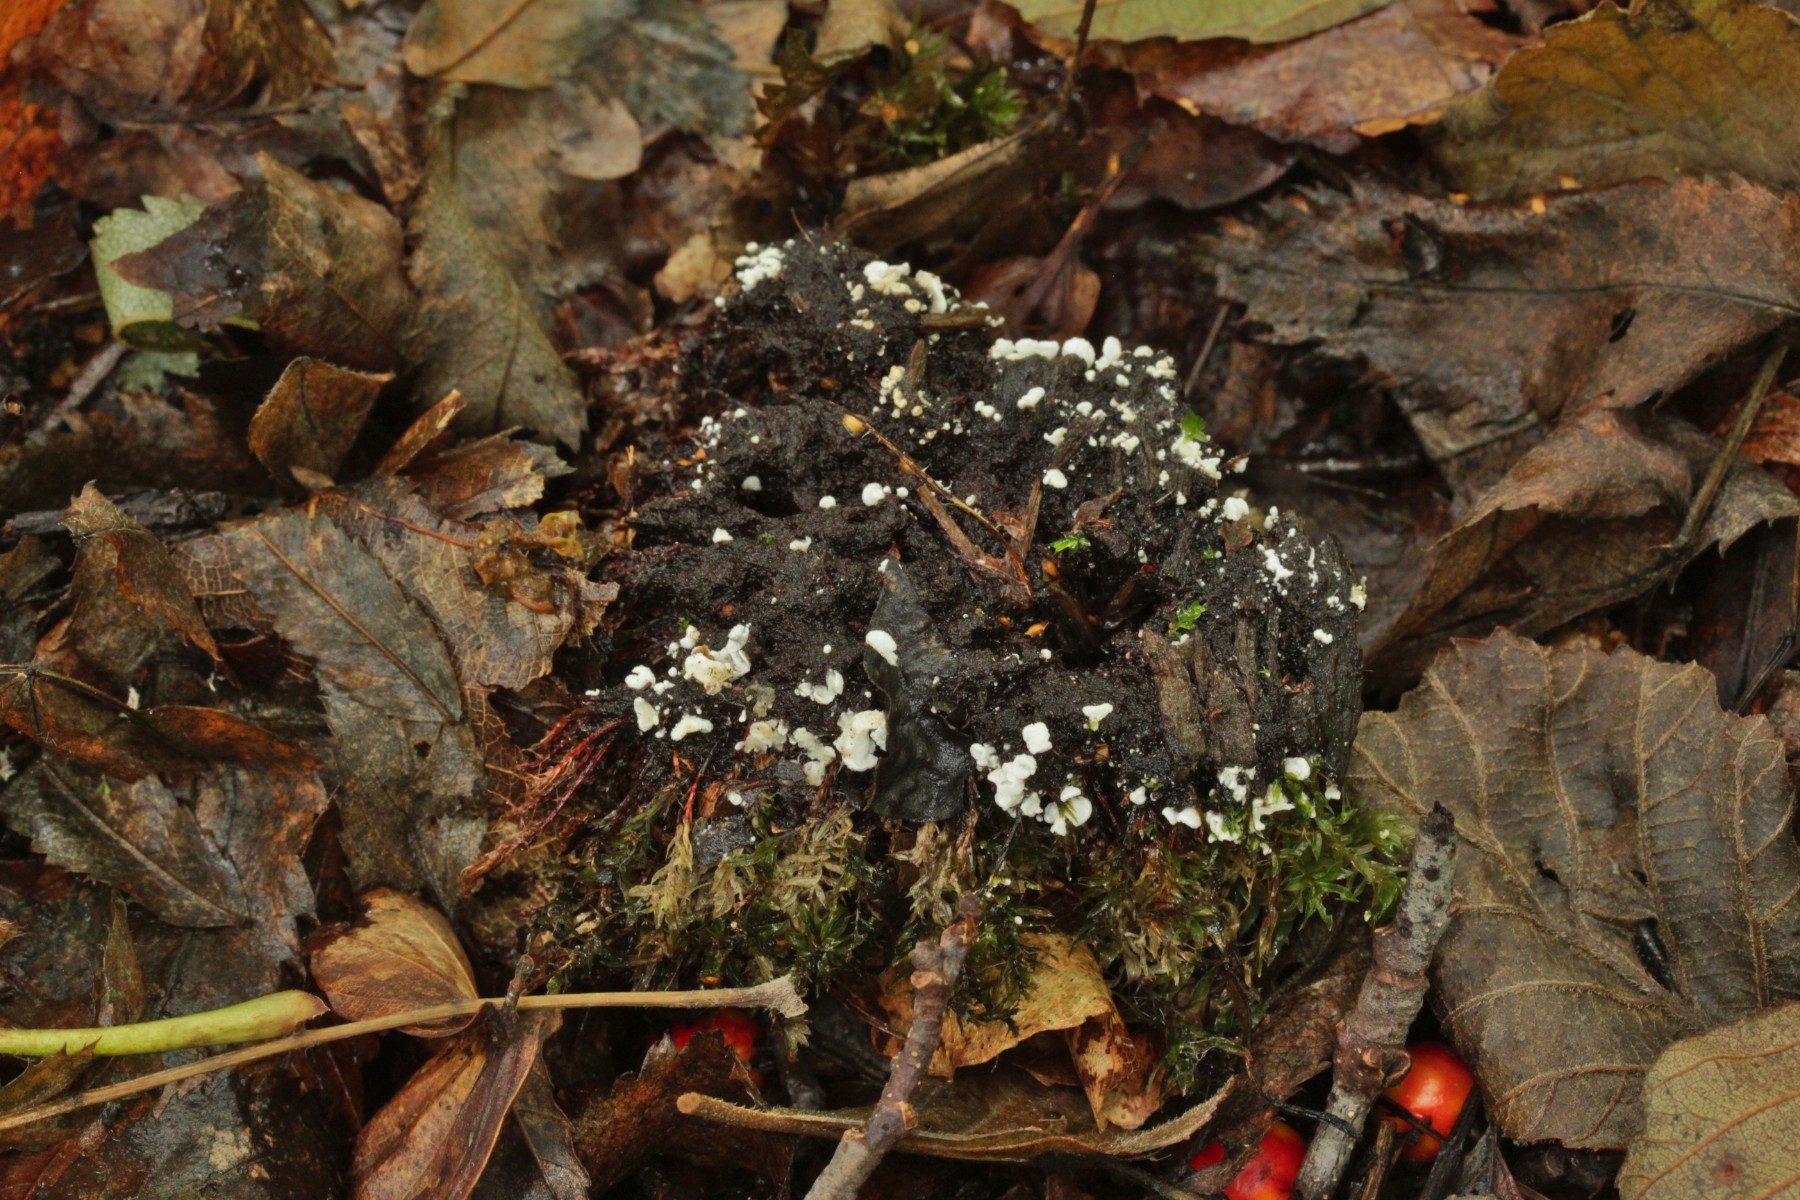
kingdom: Fungi
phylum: Basidiomycota
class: Agaricomycetes
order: Agaricales
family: Tricholomataceae
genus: Rimbachia
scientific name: Rimbachia arachnoidea
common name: Almindelig mosskål
